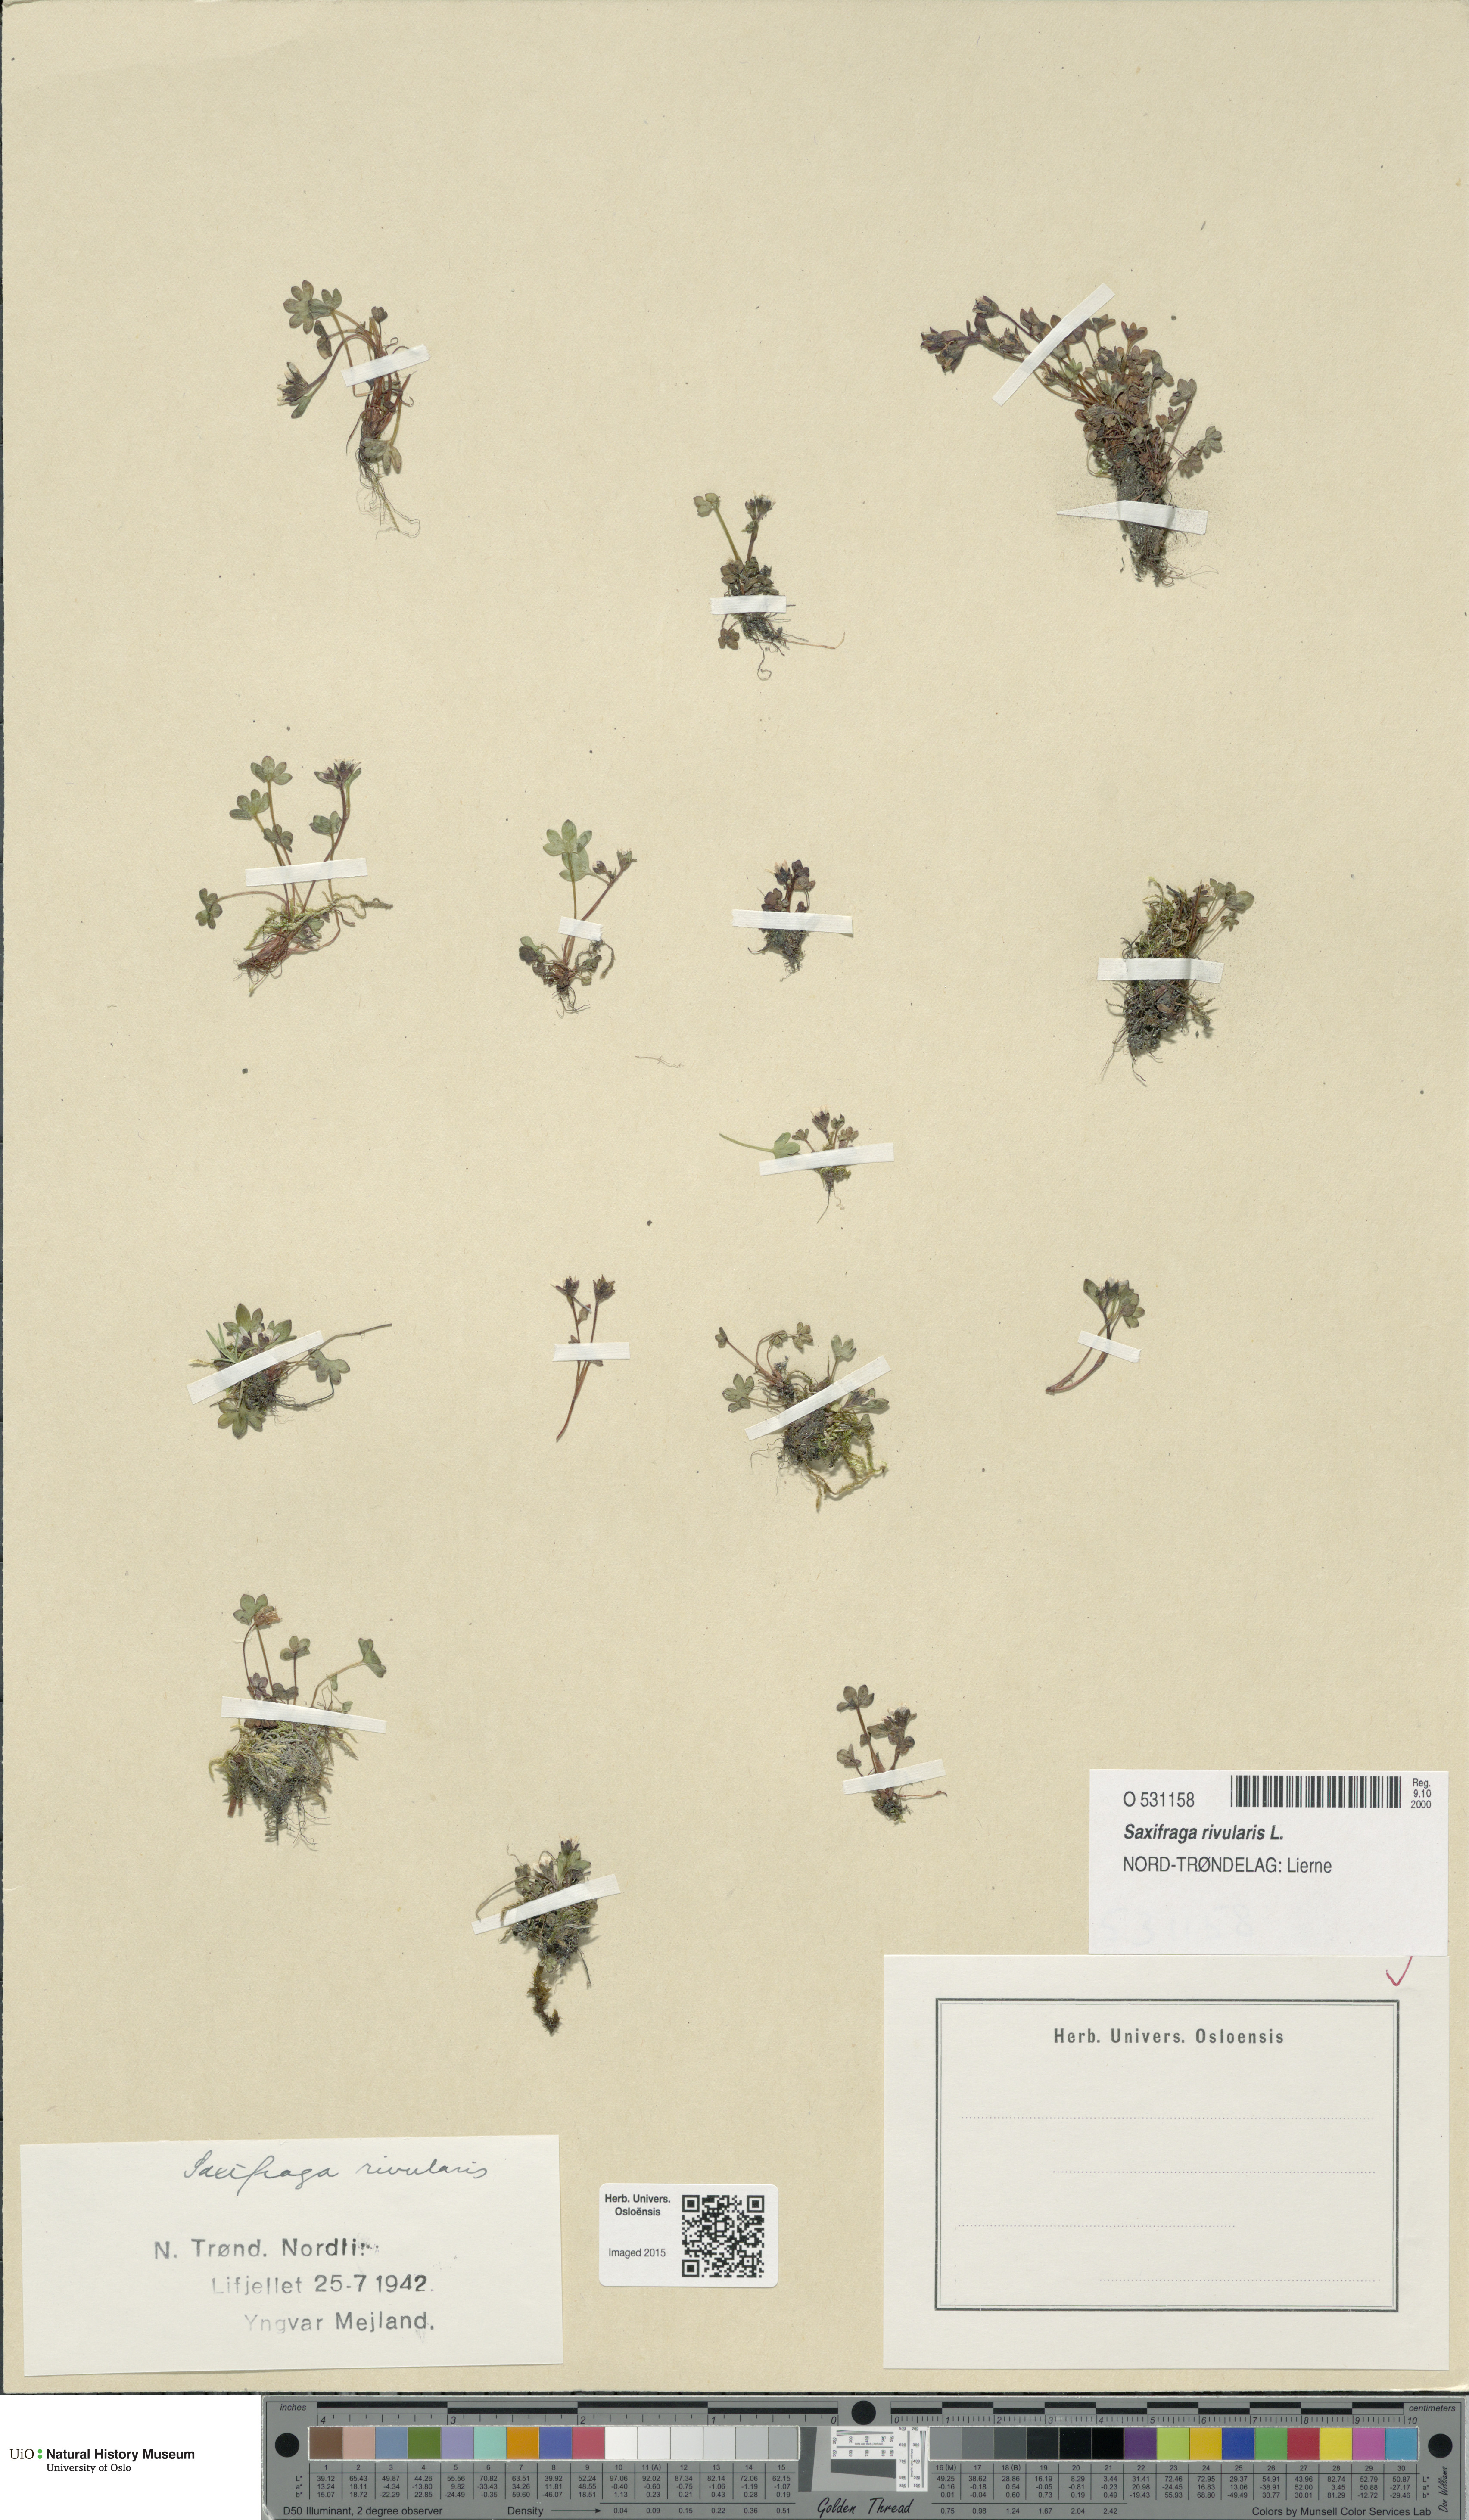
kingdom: Plantae
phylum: Tracheophyta
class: Magnoliopsida
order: Saxifragales
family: Saxifragaceae
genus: Saxifraga
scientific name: Saxifraga rivularis
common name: Highland saxifrage
